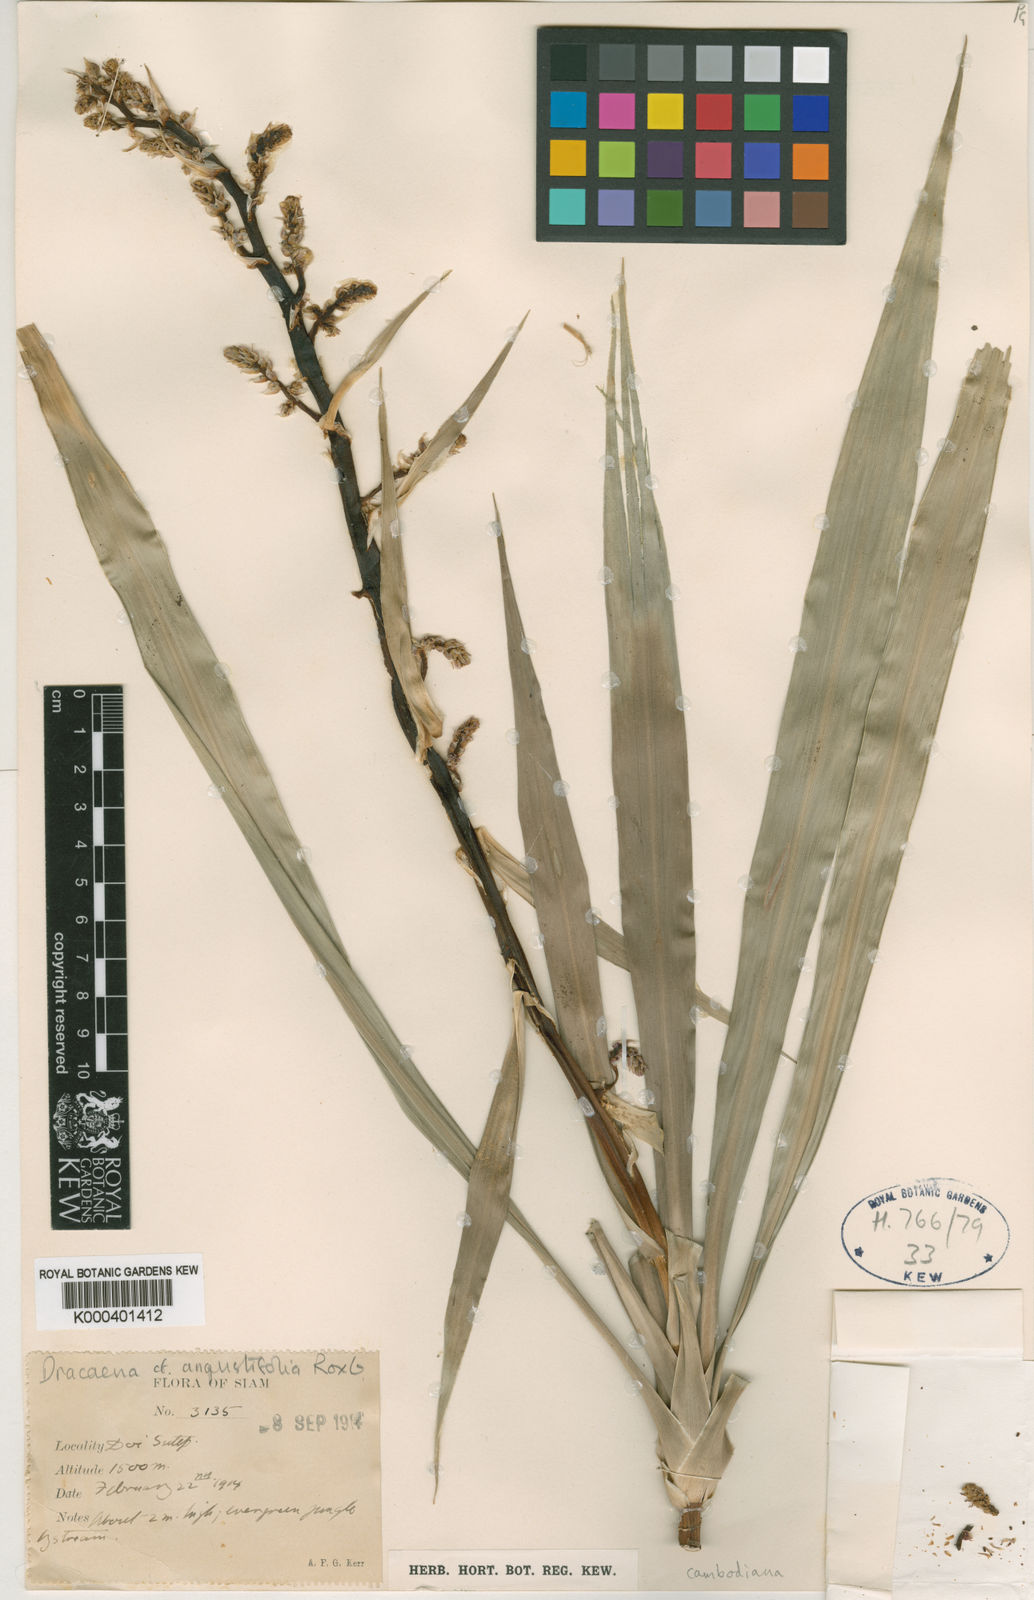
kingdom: Plantae
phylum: Tracheophyta
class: Liliopsida
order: Asparagales
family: Asparagaceae
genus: Dracaena
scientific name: Dracaena cambodiana
